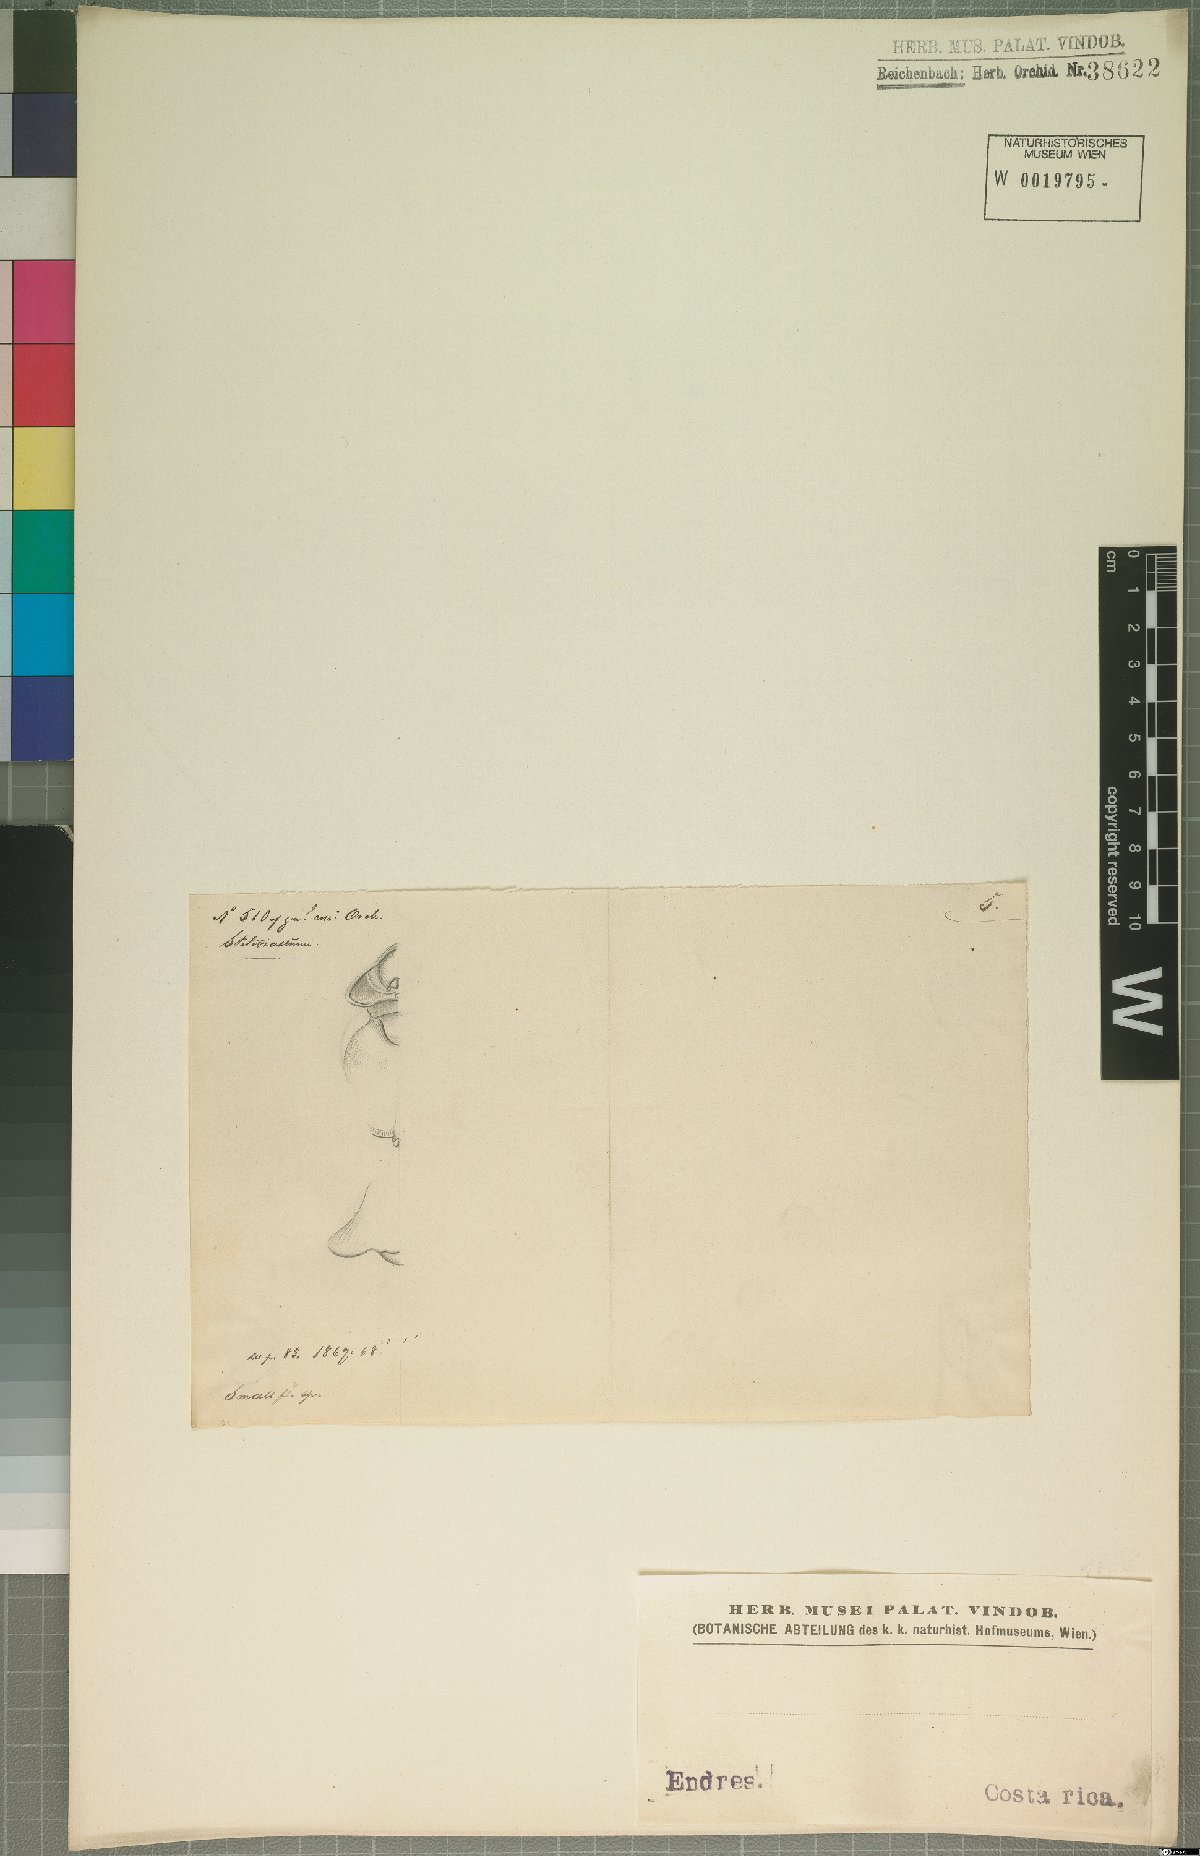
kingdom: Plantae
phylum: Tracheophyta
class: Liliopsida
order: Asparagales
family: Orchidaceae
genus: Stelis
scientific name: Stelis
